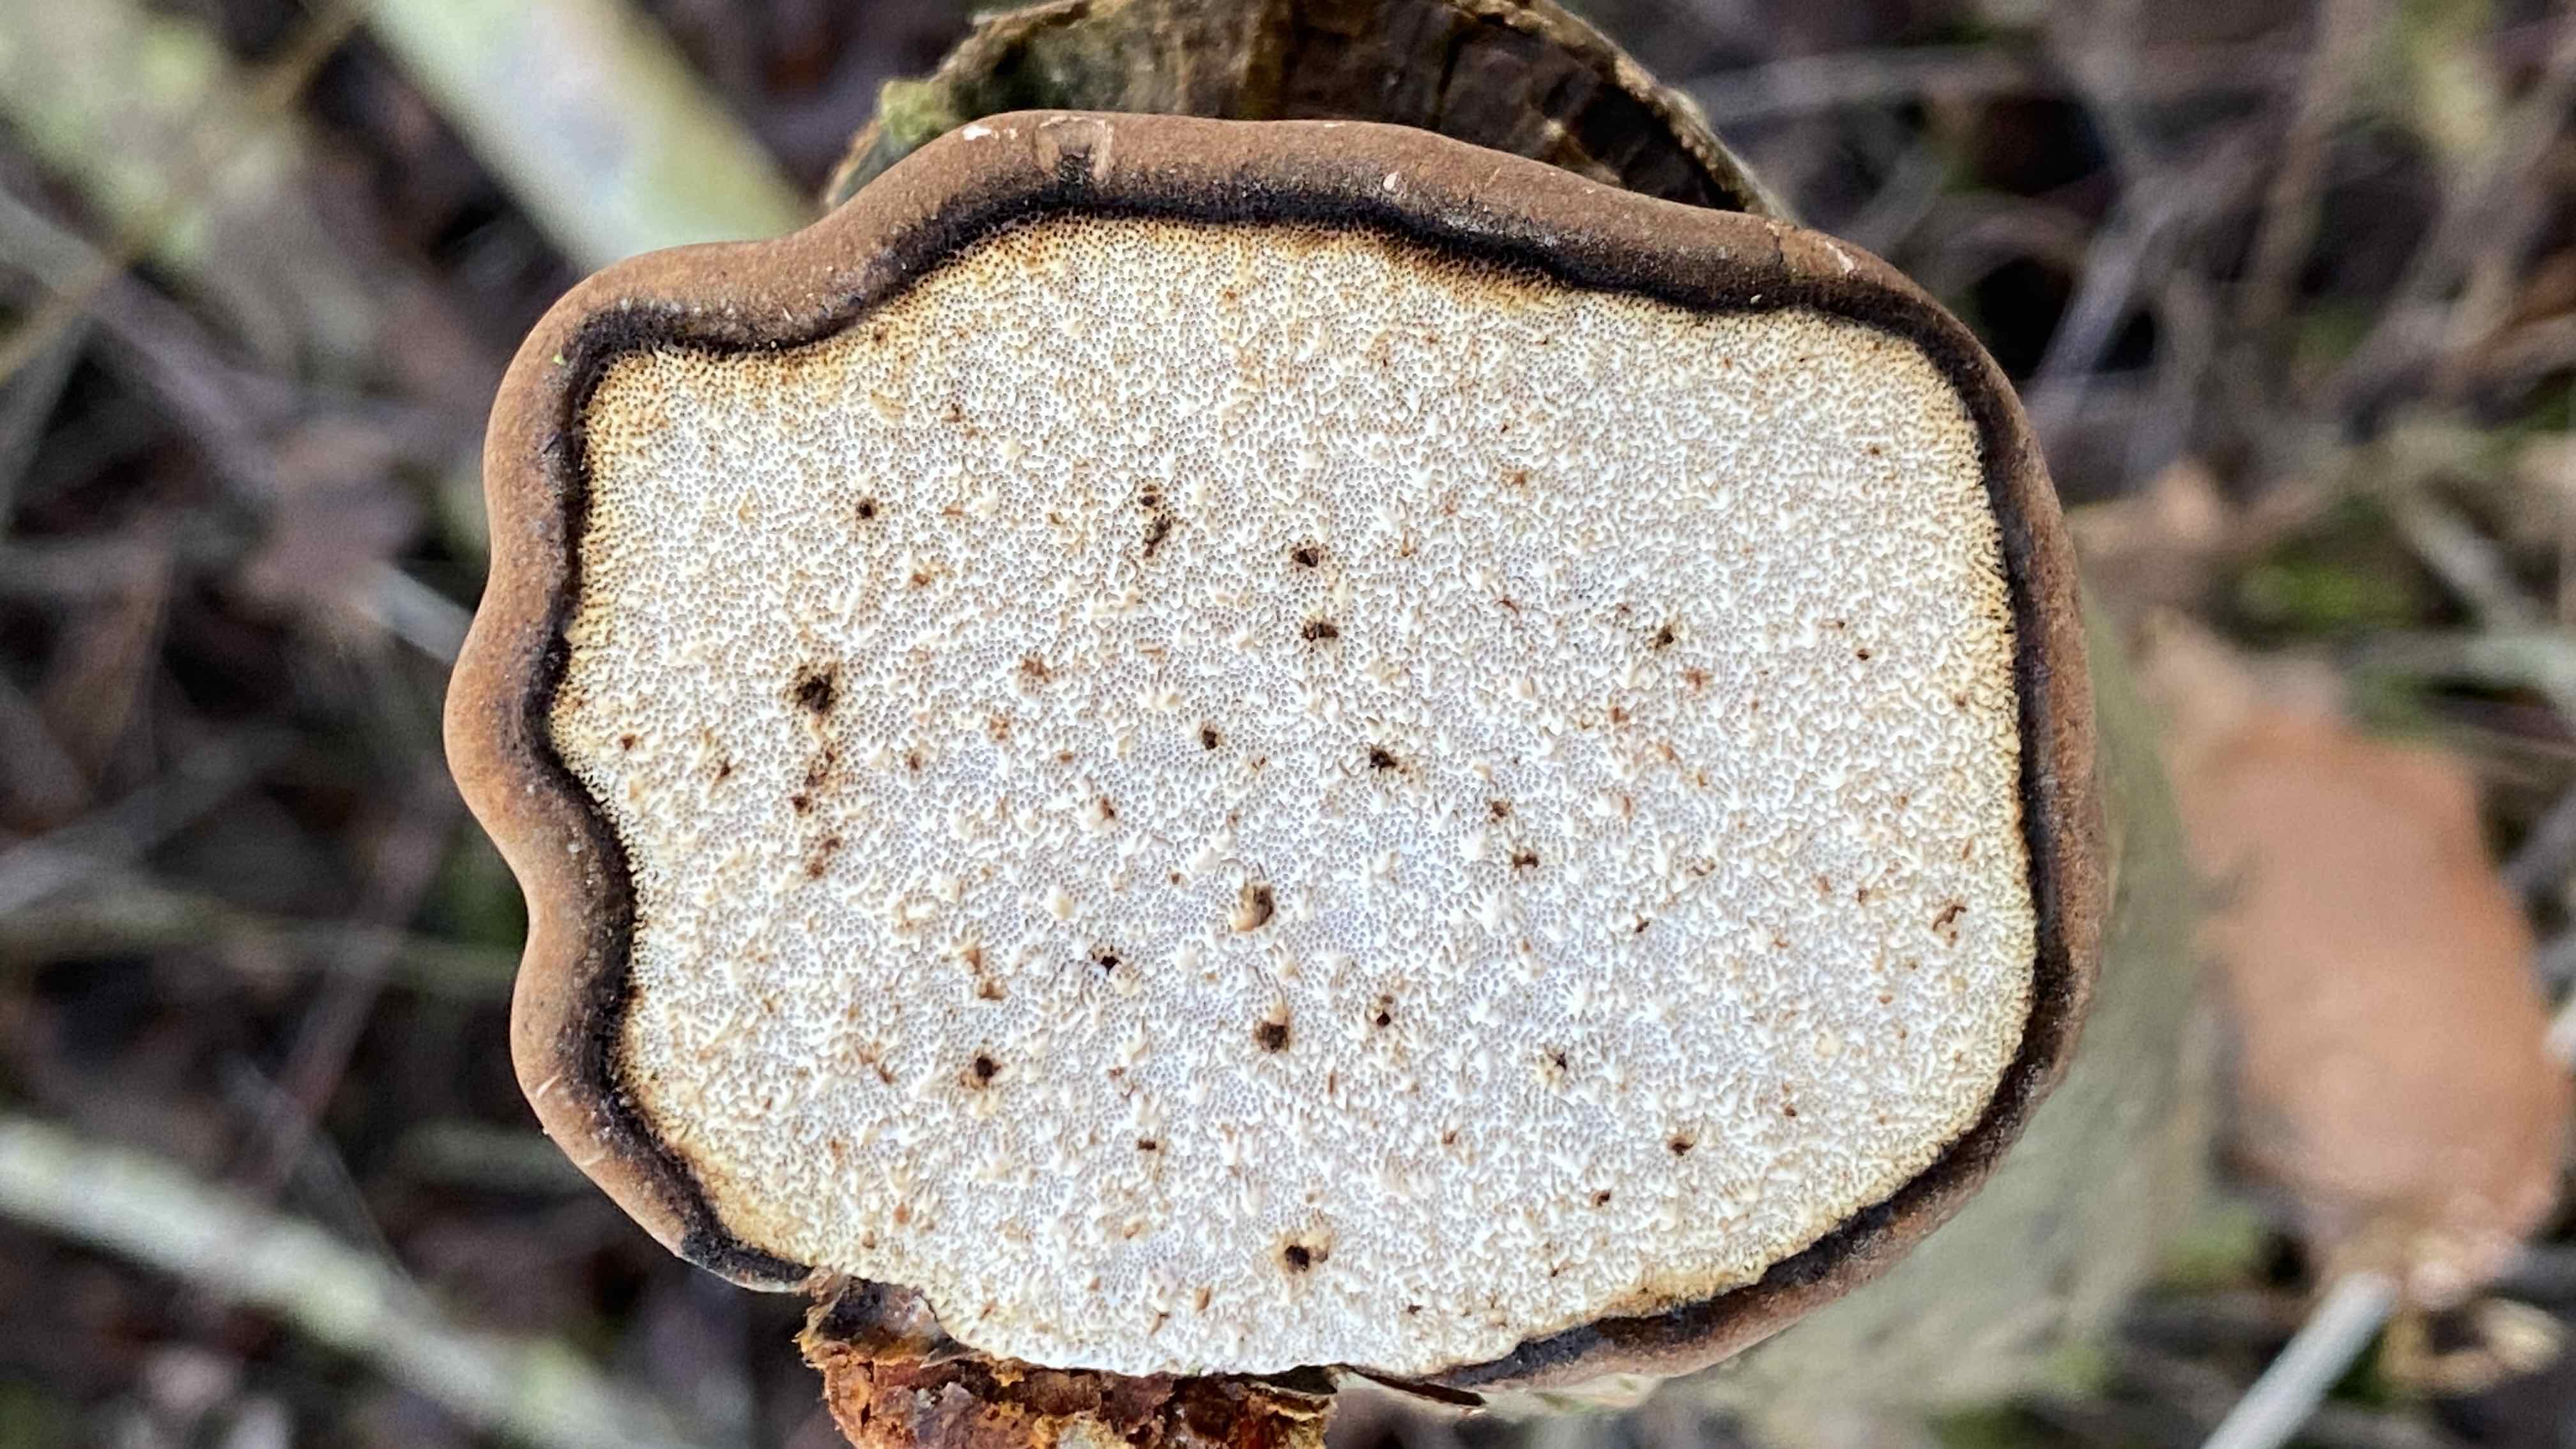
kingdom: Fungi
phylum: Basidiomycota
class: Agaricomycetes
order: Polyporales
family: Fomitopsidaceae
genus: Fomitopsis
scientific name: Fomitopsis betulina
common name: birkeporesvamp
